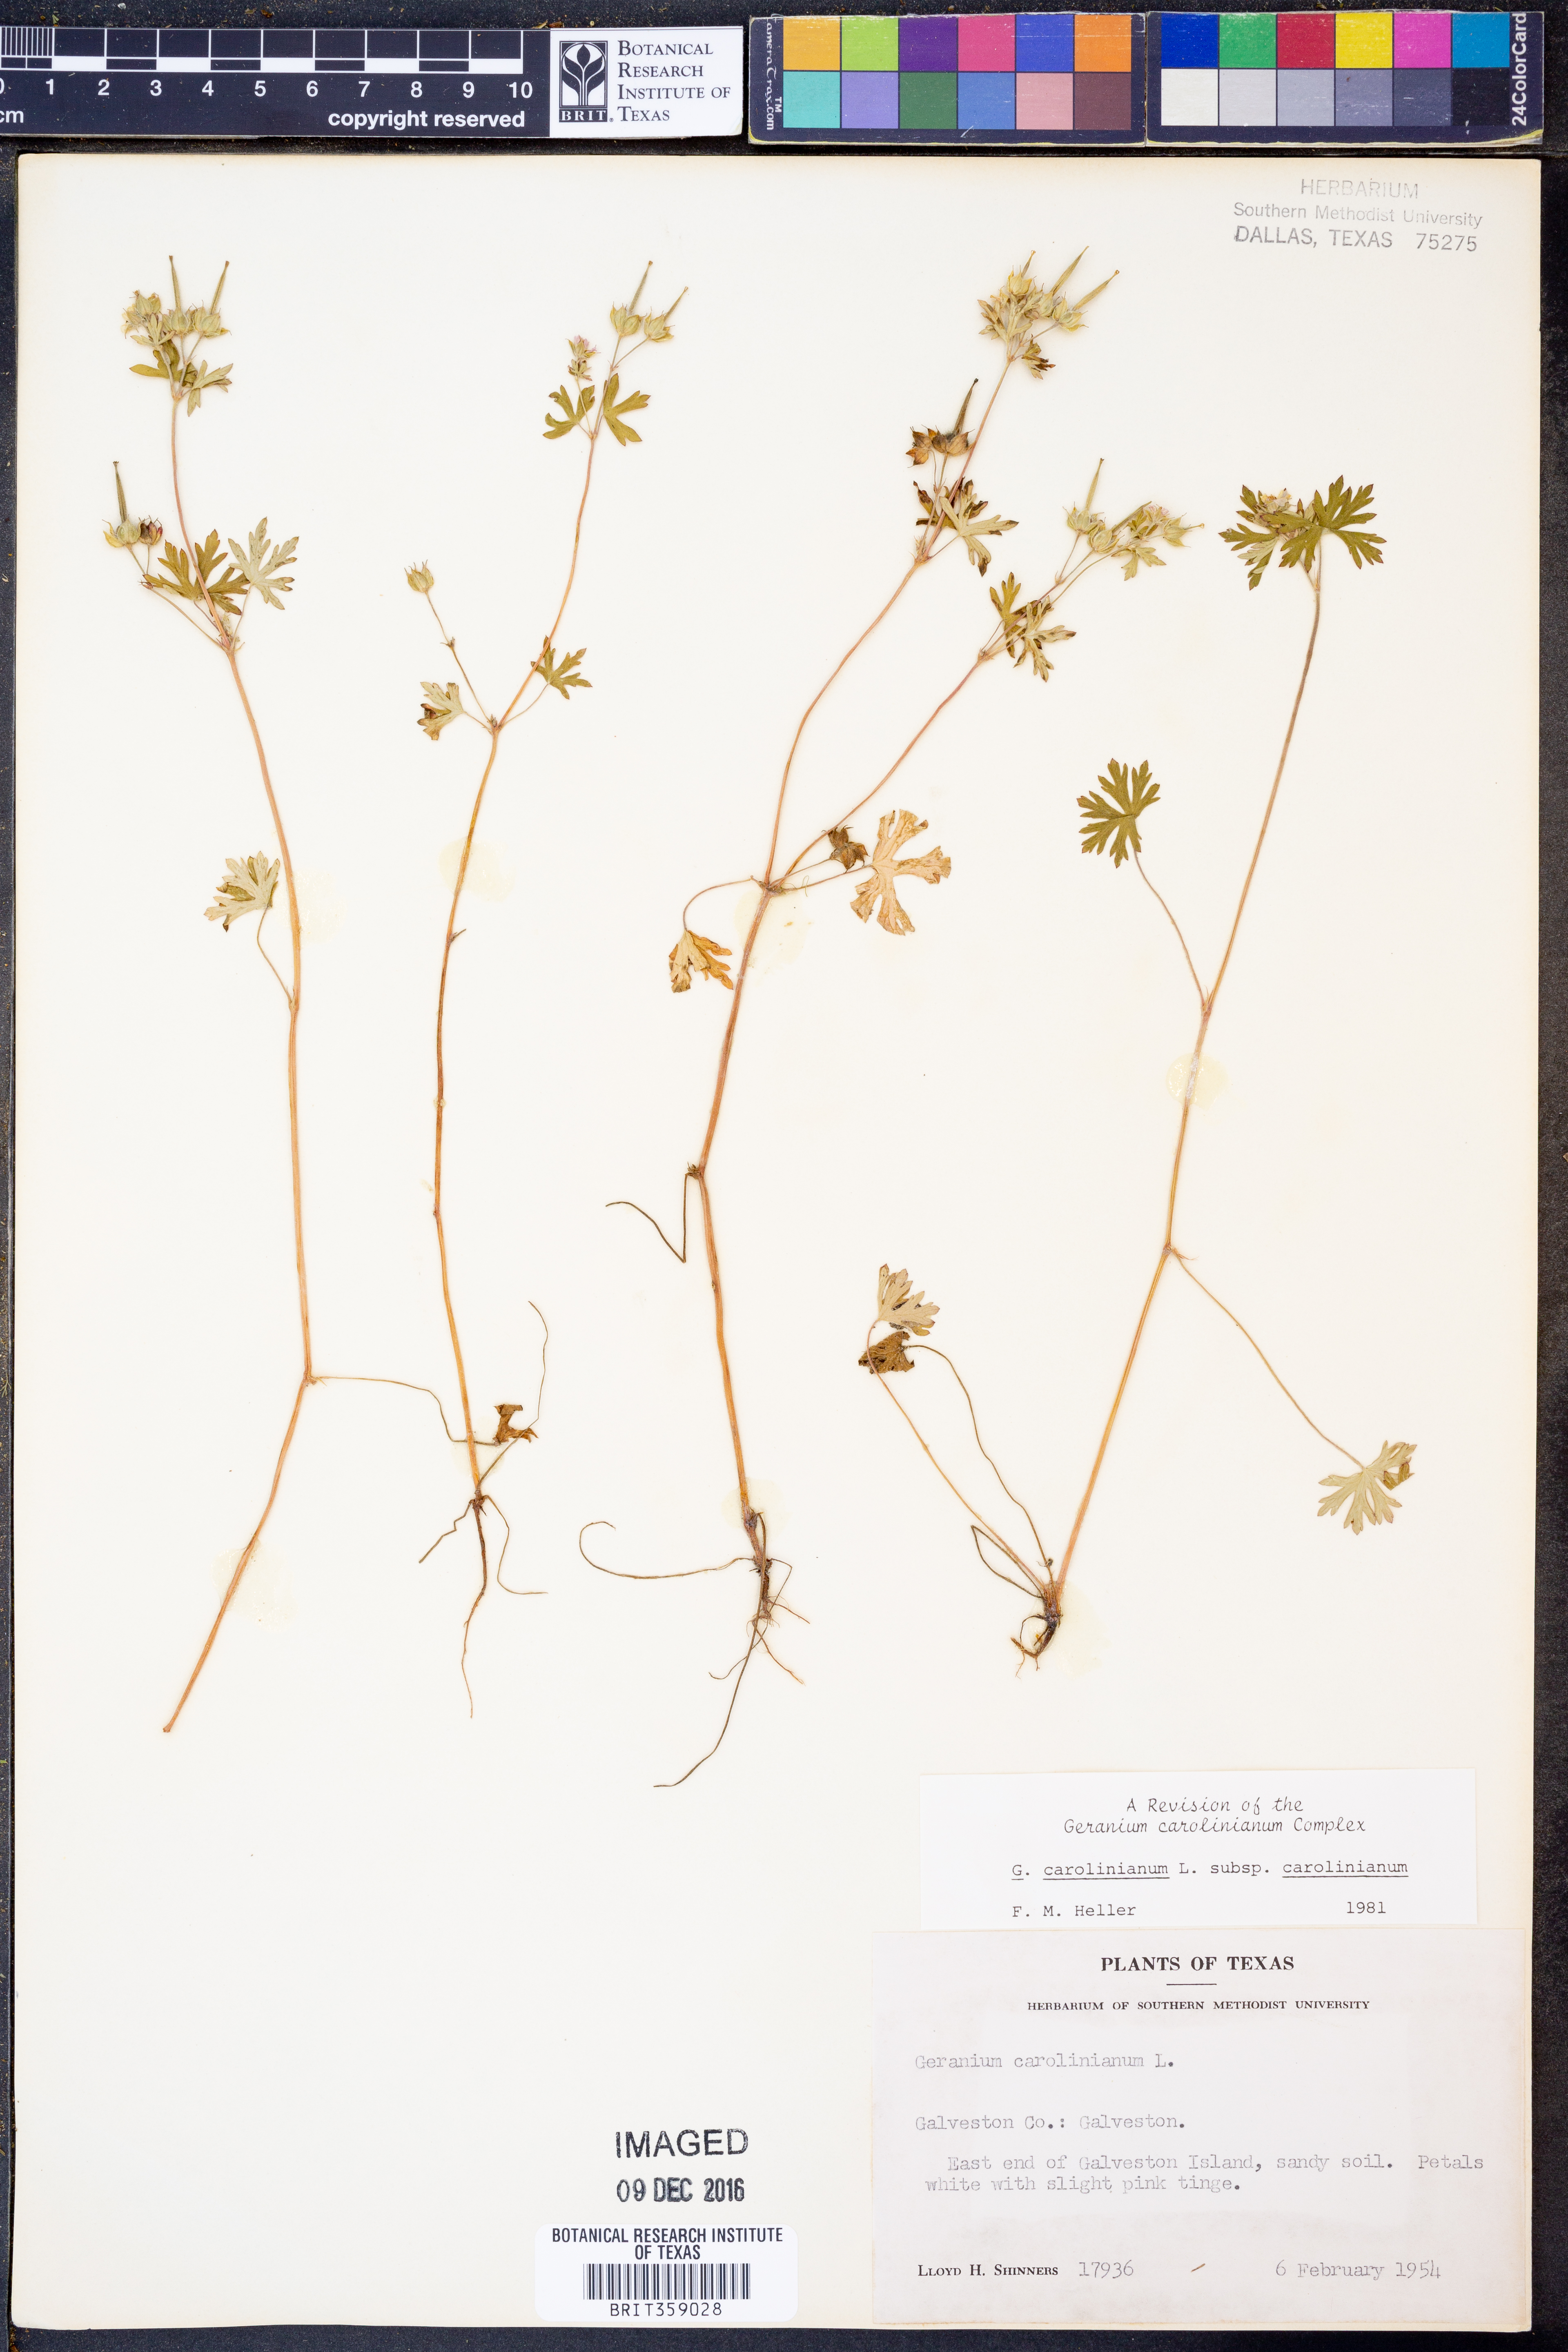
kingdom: Plantae
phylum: Tracheophyta
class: Magnoliopsida
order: Geraniales
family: Geraniaceae
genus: Geranium
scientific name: Geranium carolinianum
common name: Carolina crane's-bill
